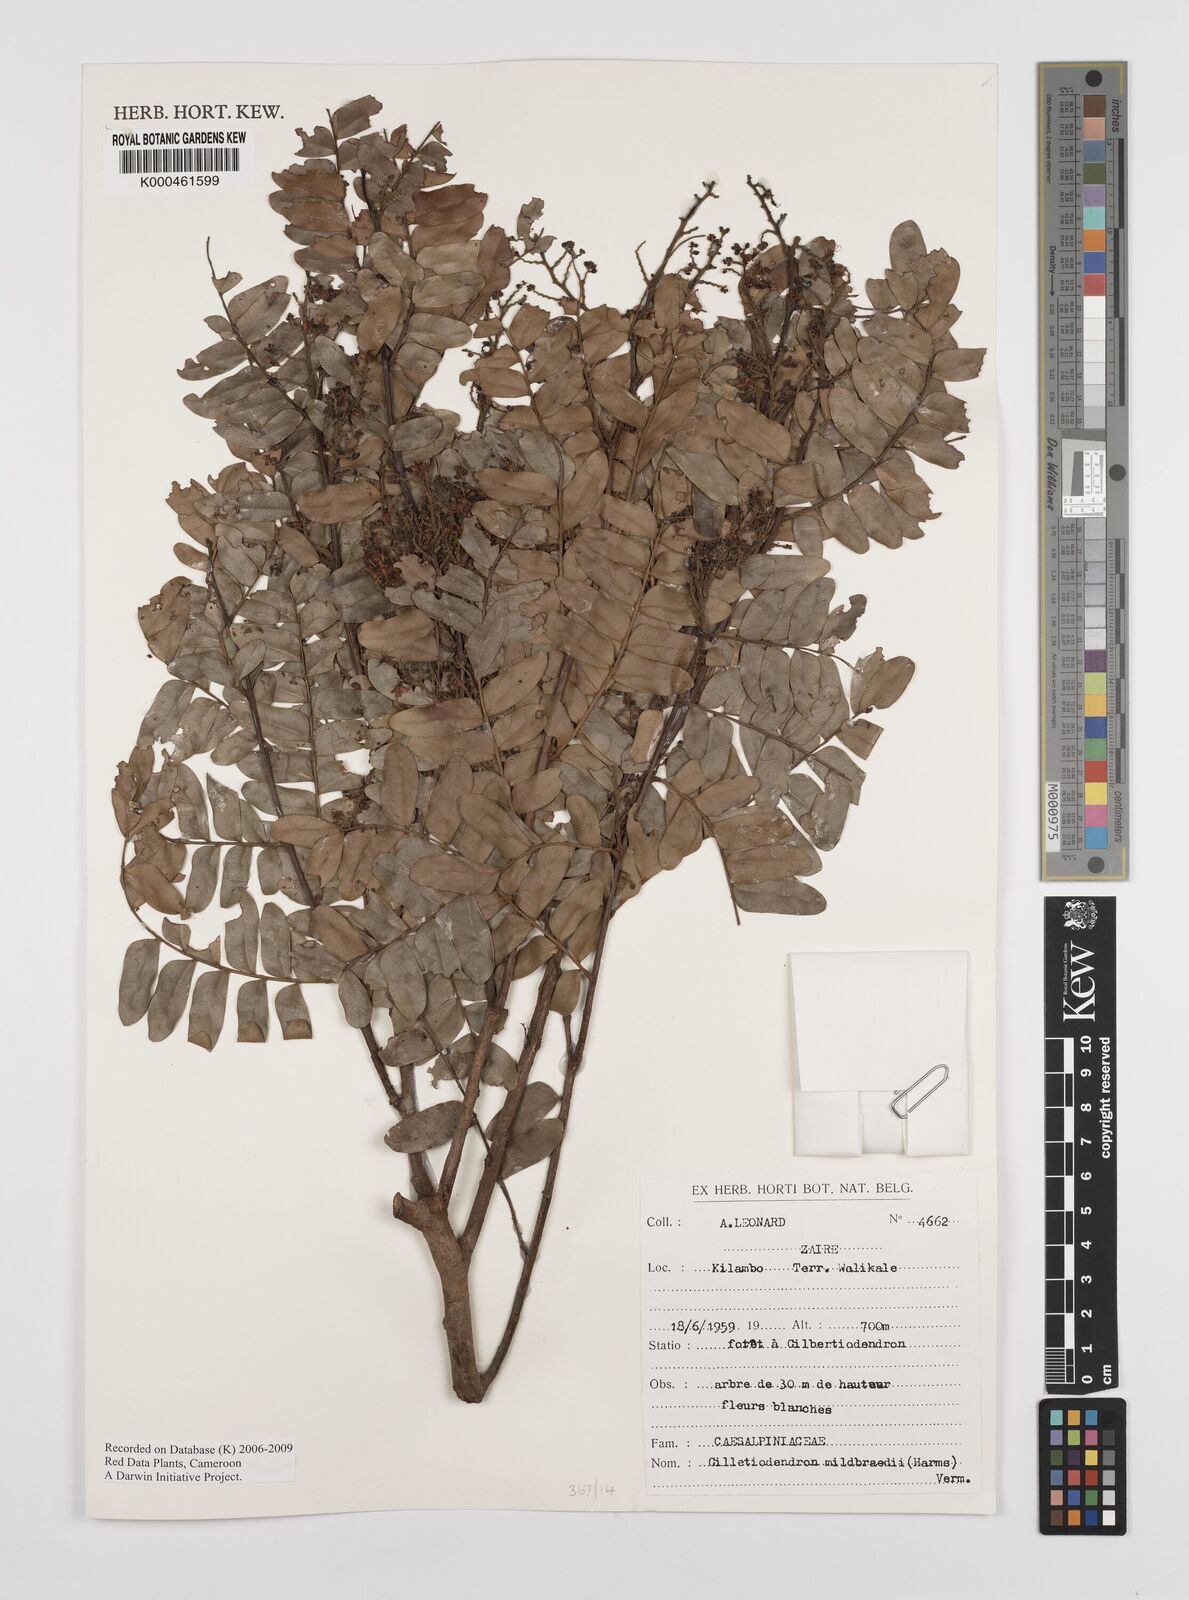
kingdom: Plantae
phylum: Tracheophyta
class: Magnoliopsida
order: Fabales
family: Fabaceae
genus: Gilletiodendron
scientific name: Gilletiodendron mildbraedii
